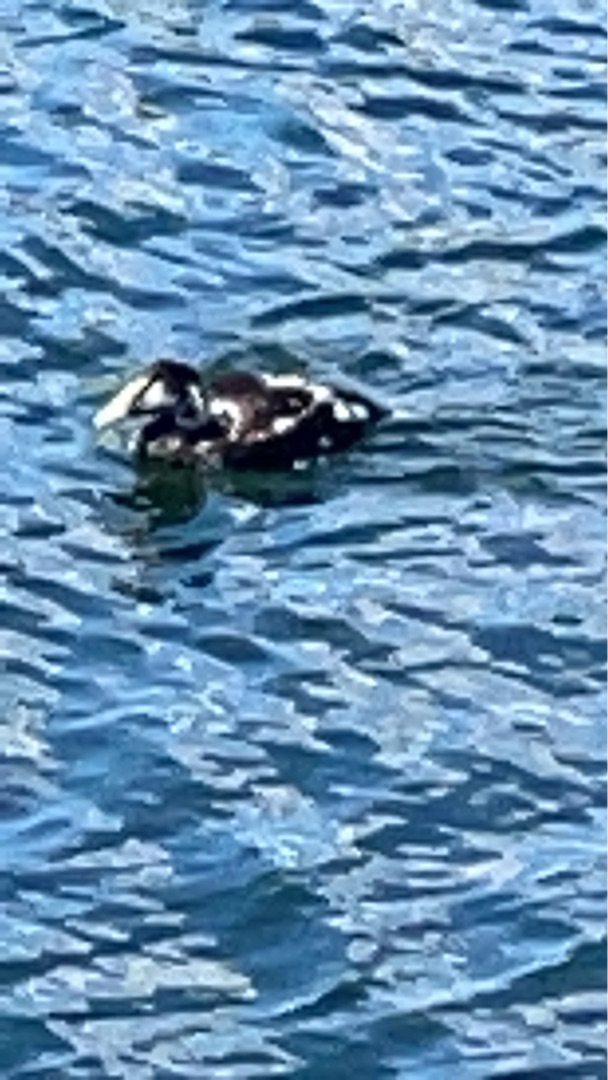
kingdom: Animalia
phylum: Chordata
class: Aves
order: Anseriformes
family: Anatidae
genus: Somateria
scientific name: Somateria mollissima
